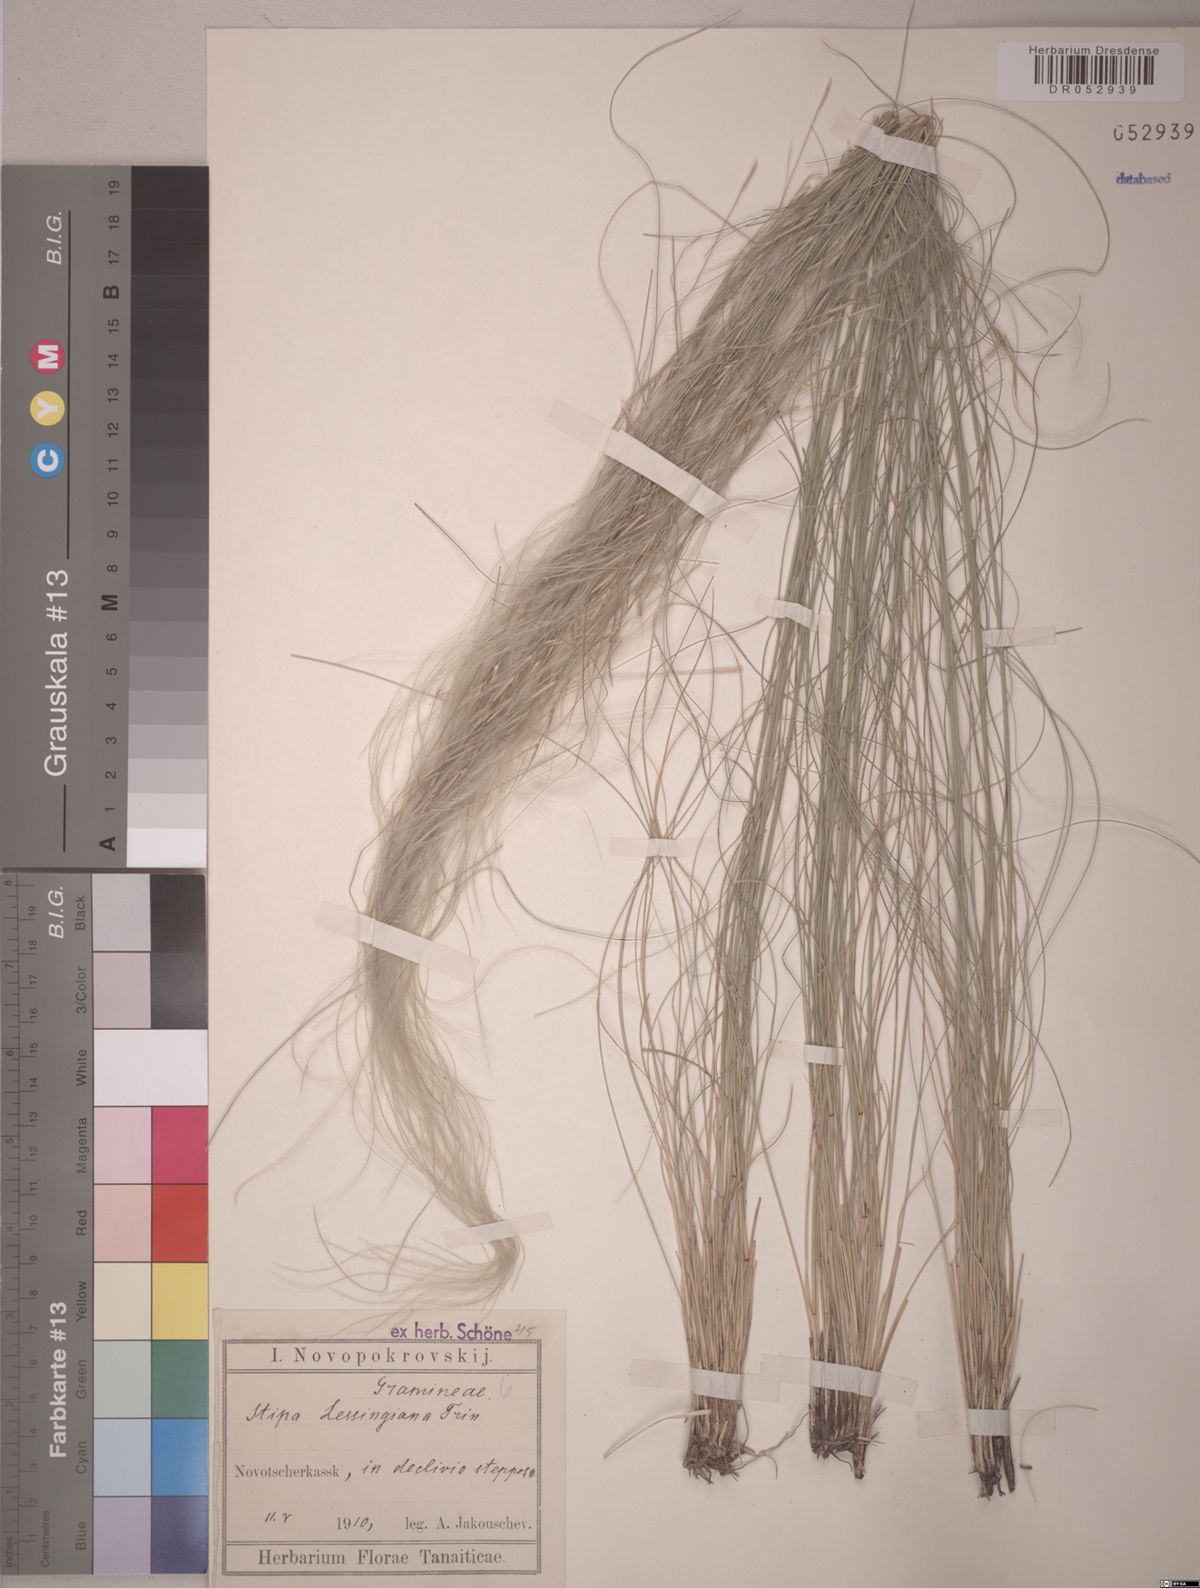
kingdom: Plantae
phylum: Tracheophyta
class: Liliopsida
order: Poales
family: Poaceae
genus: Stipa
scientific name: Stipa lessingiana
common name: Needle grass
